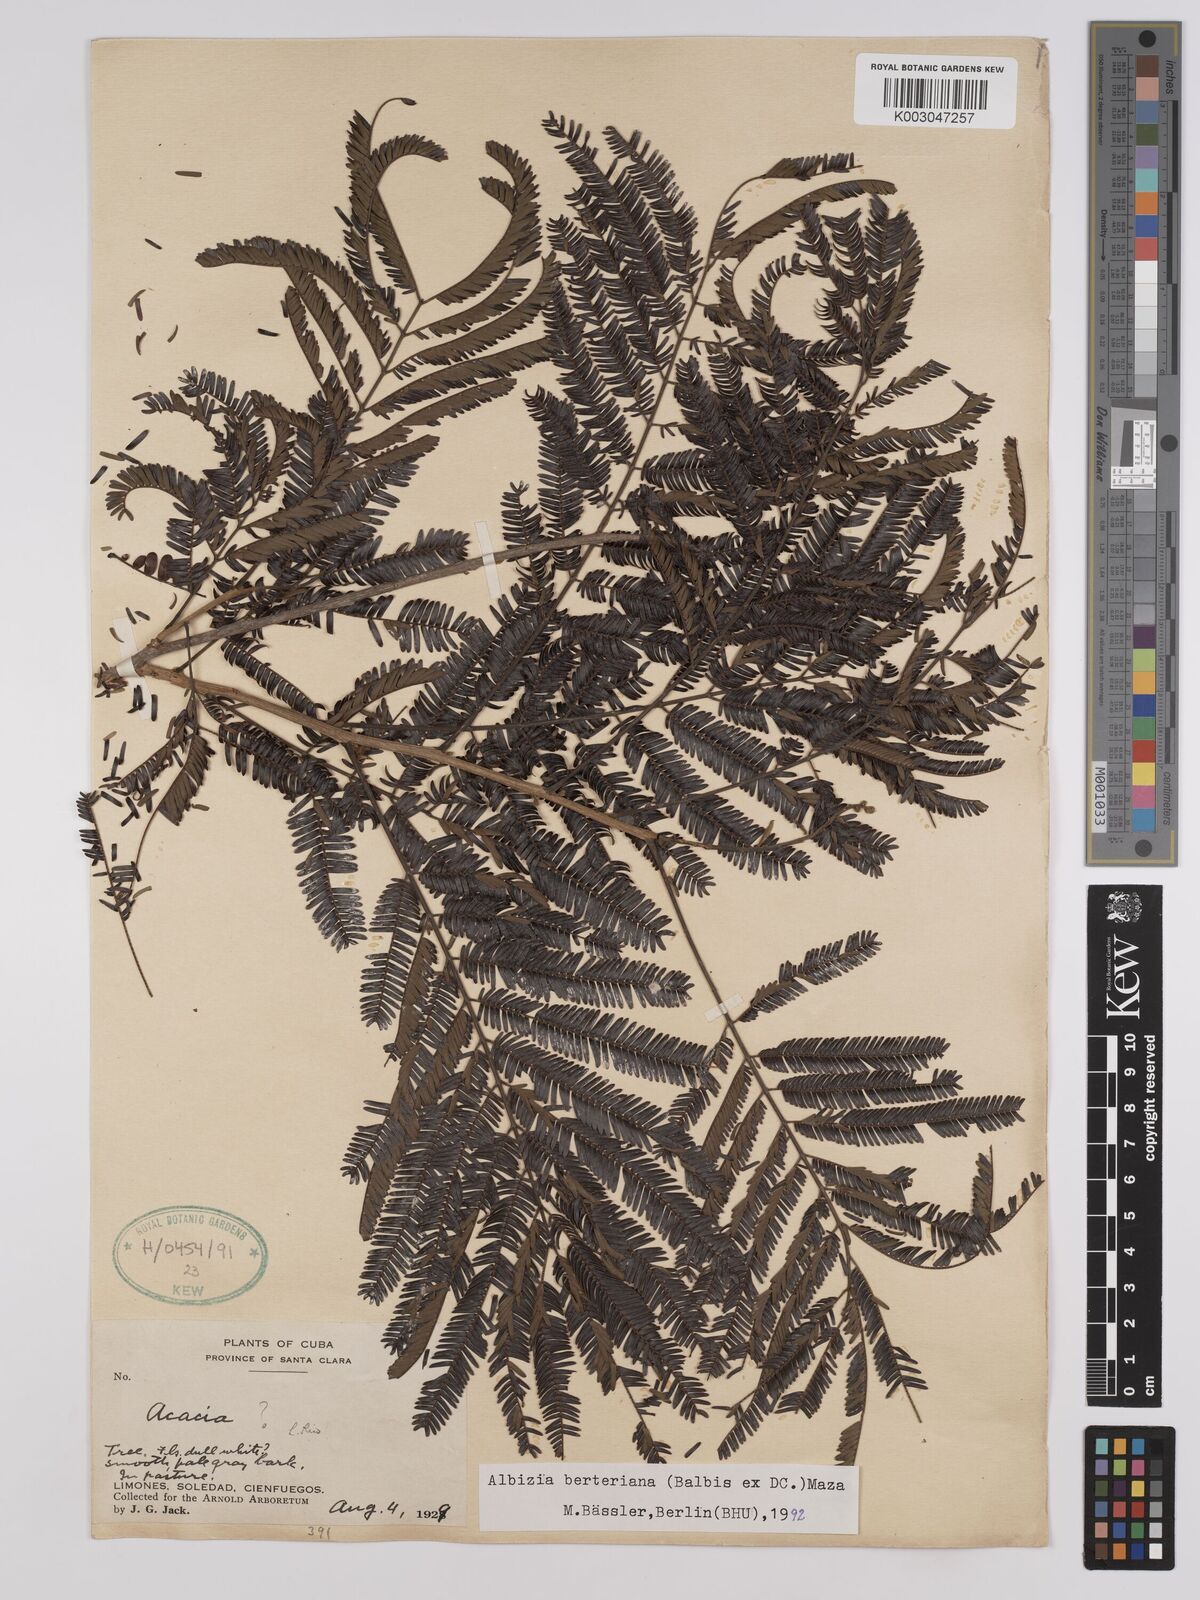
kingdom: Plantae
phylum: Tracheophyta
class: Magnoliopsida
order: Fabales
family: Fabaceae
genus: Albizia
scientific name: Albizia niopoides
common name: Silk tree
